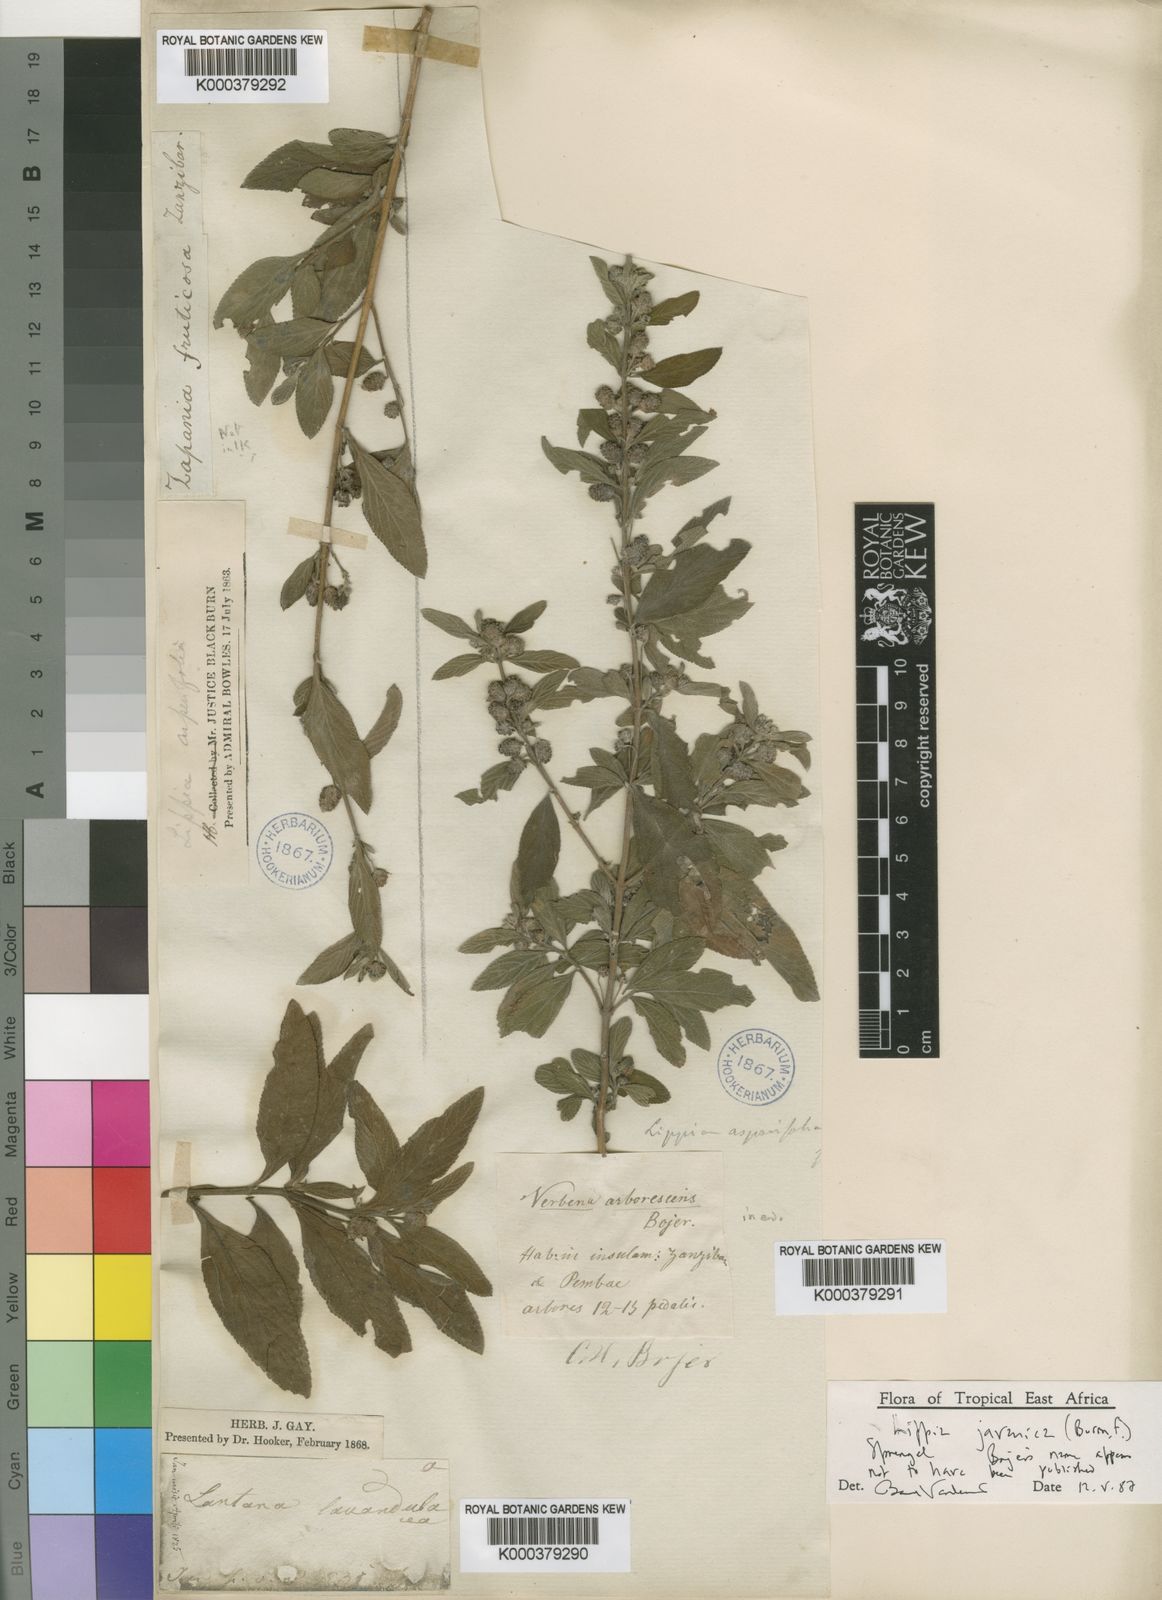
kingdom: Plantae
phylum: Tracheophyta
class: Magnoliopsida
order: Lamiales
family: Verbenaceae
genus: Lippia
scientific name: Lippia javanica
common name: Lemonbush
